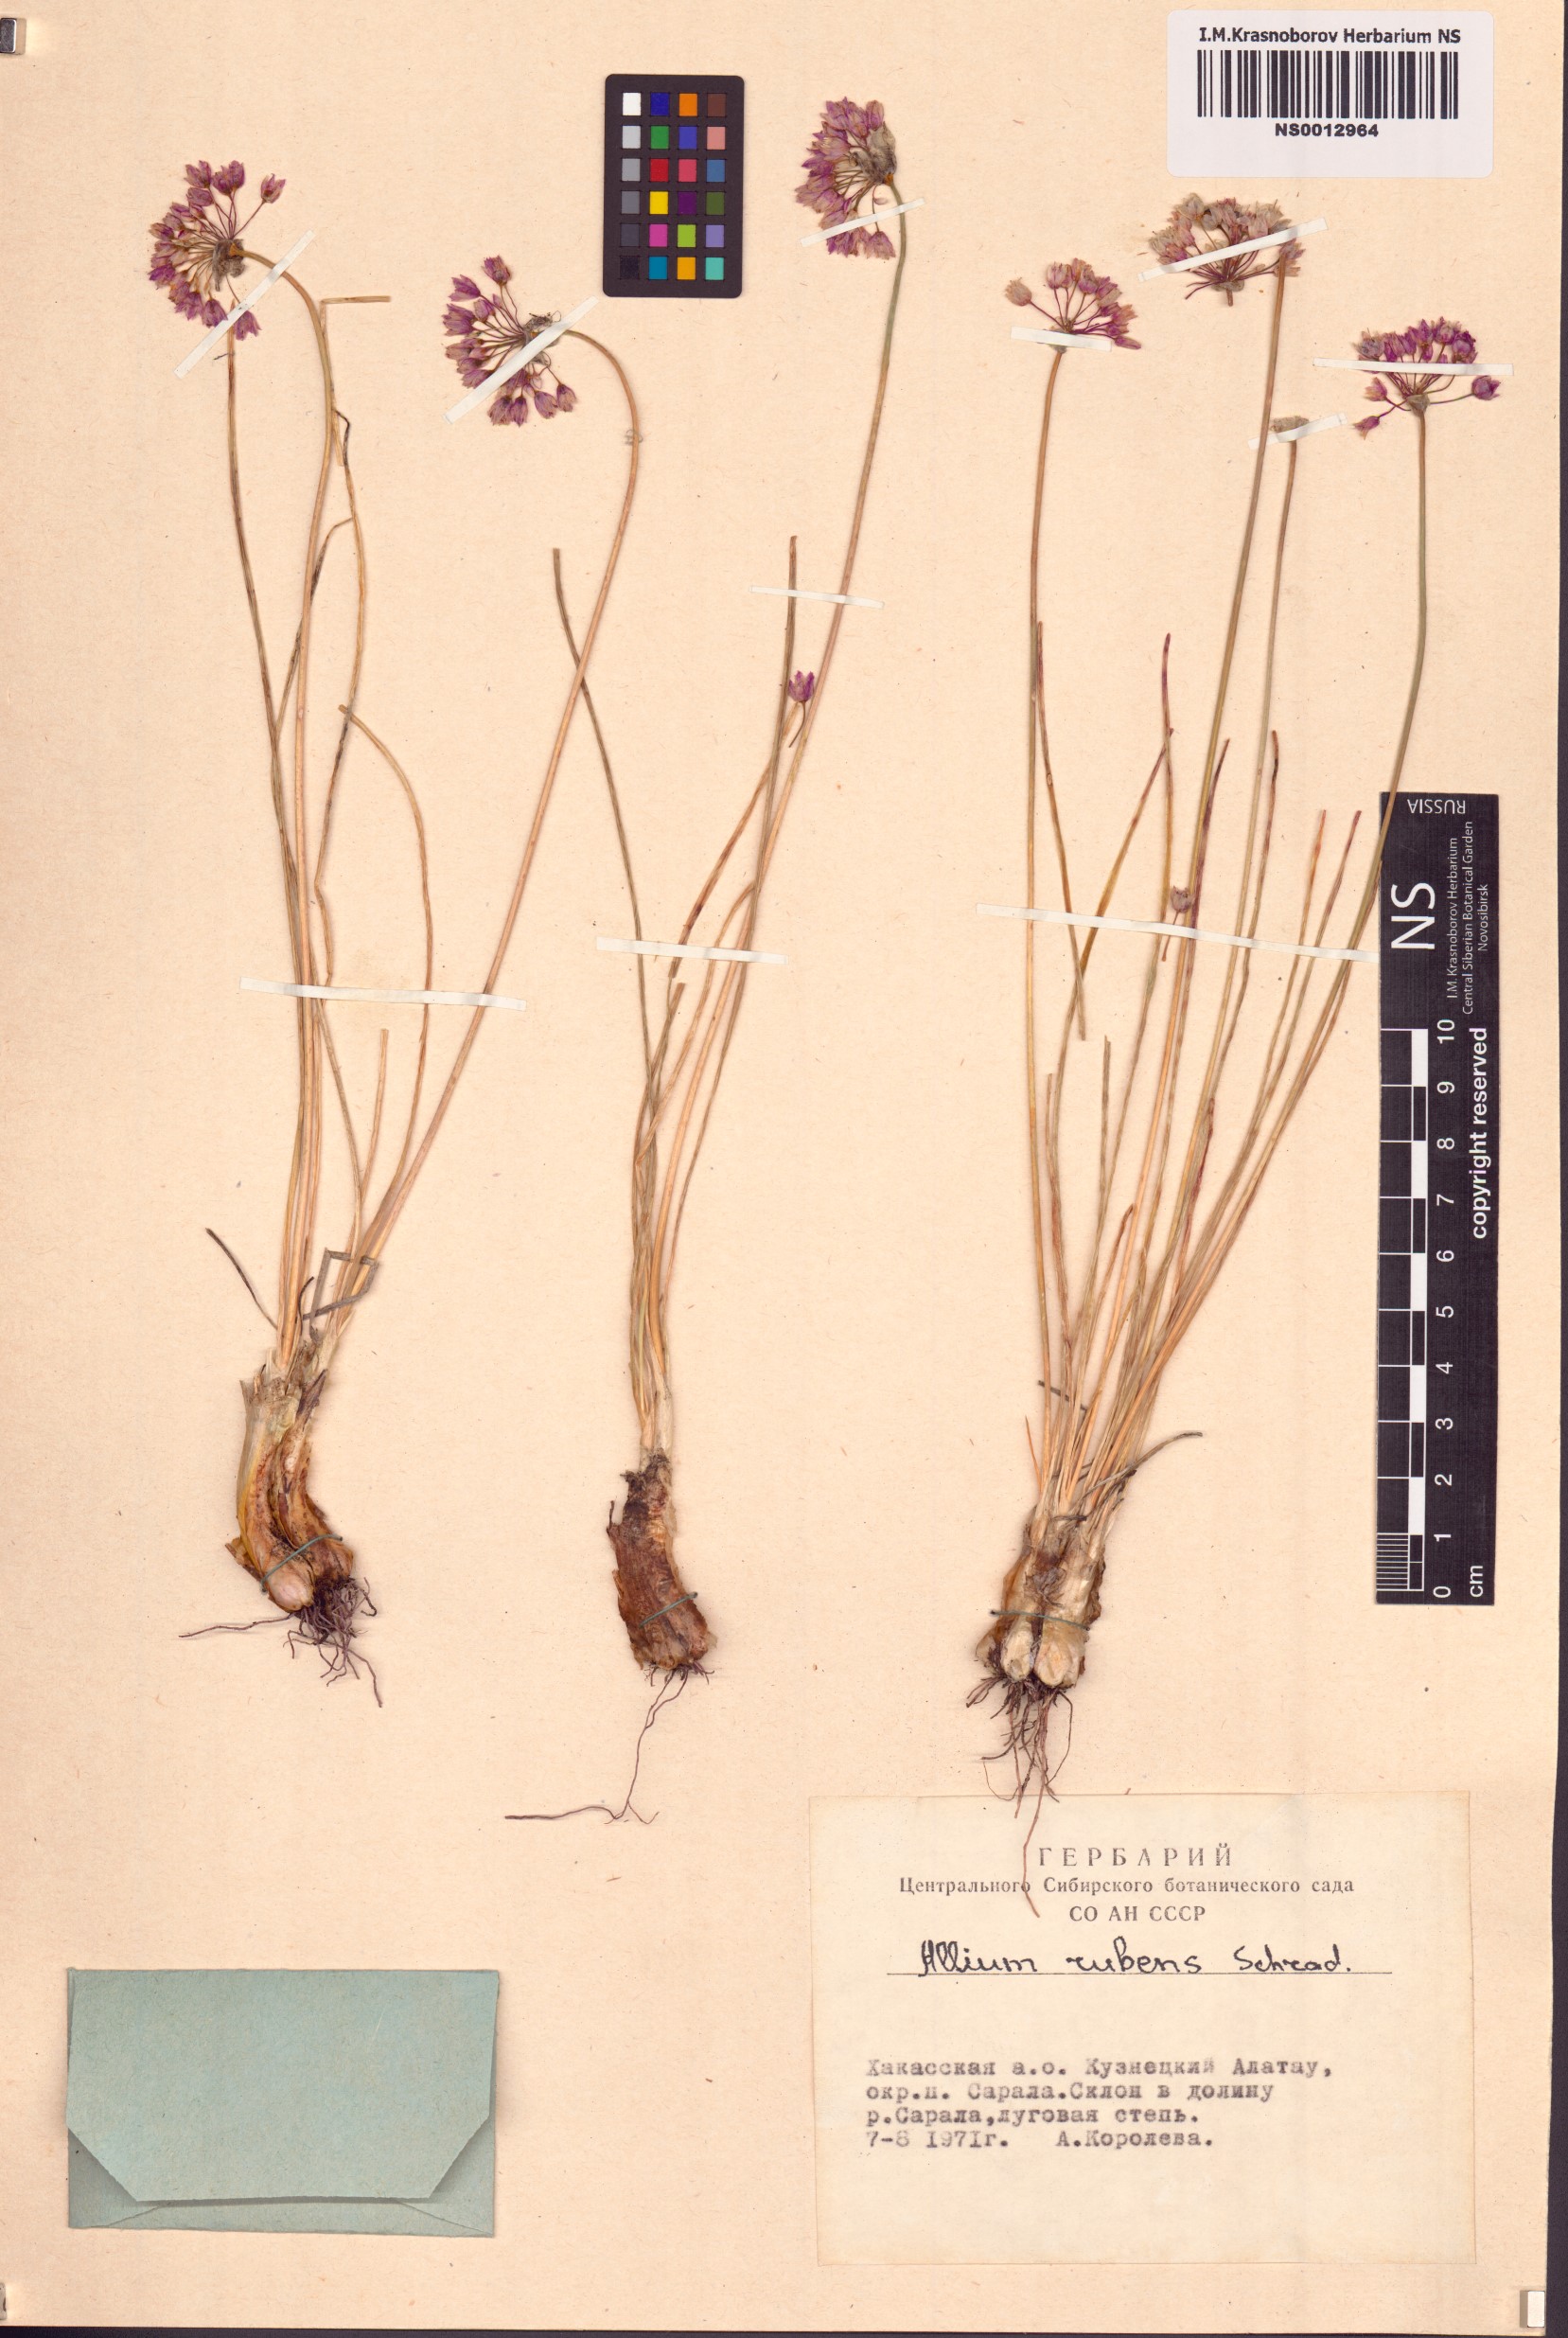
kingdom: Plantae
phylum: Tracheophyta
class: Liliopsida
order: Asparagales
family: Amaryllidaceae
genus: Allium
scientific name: Allium rubens
